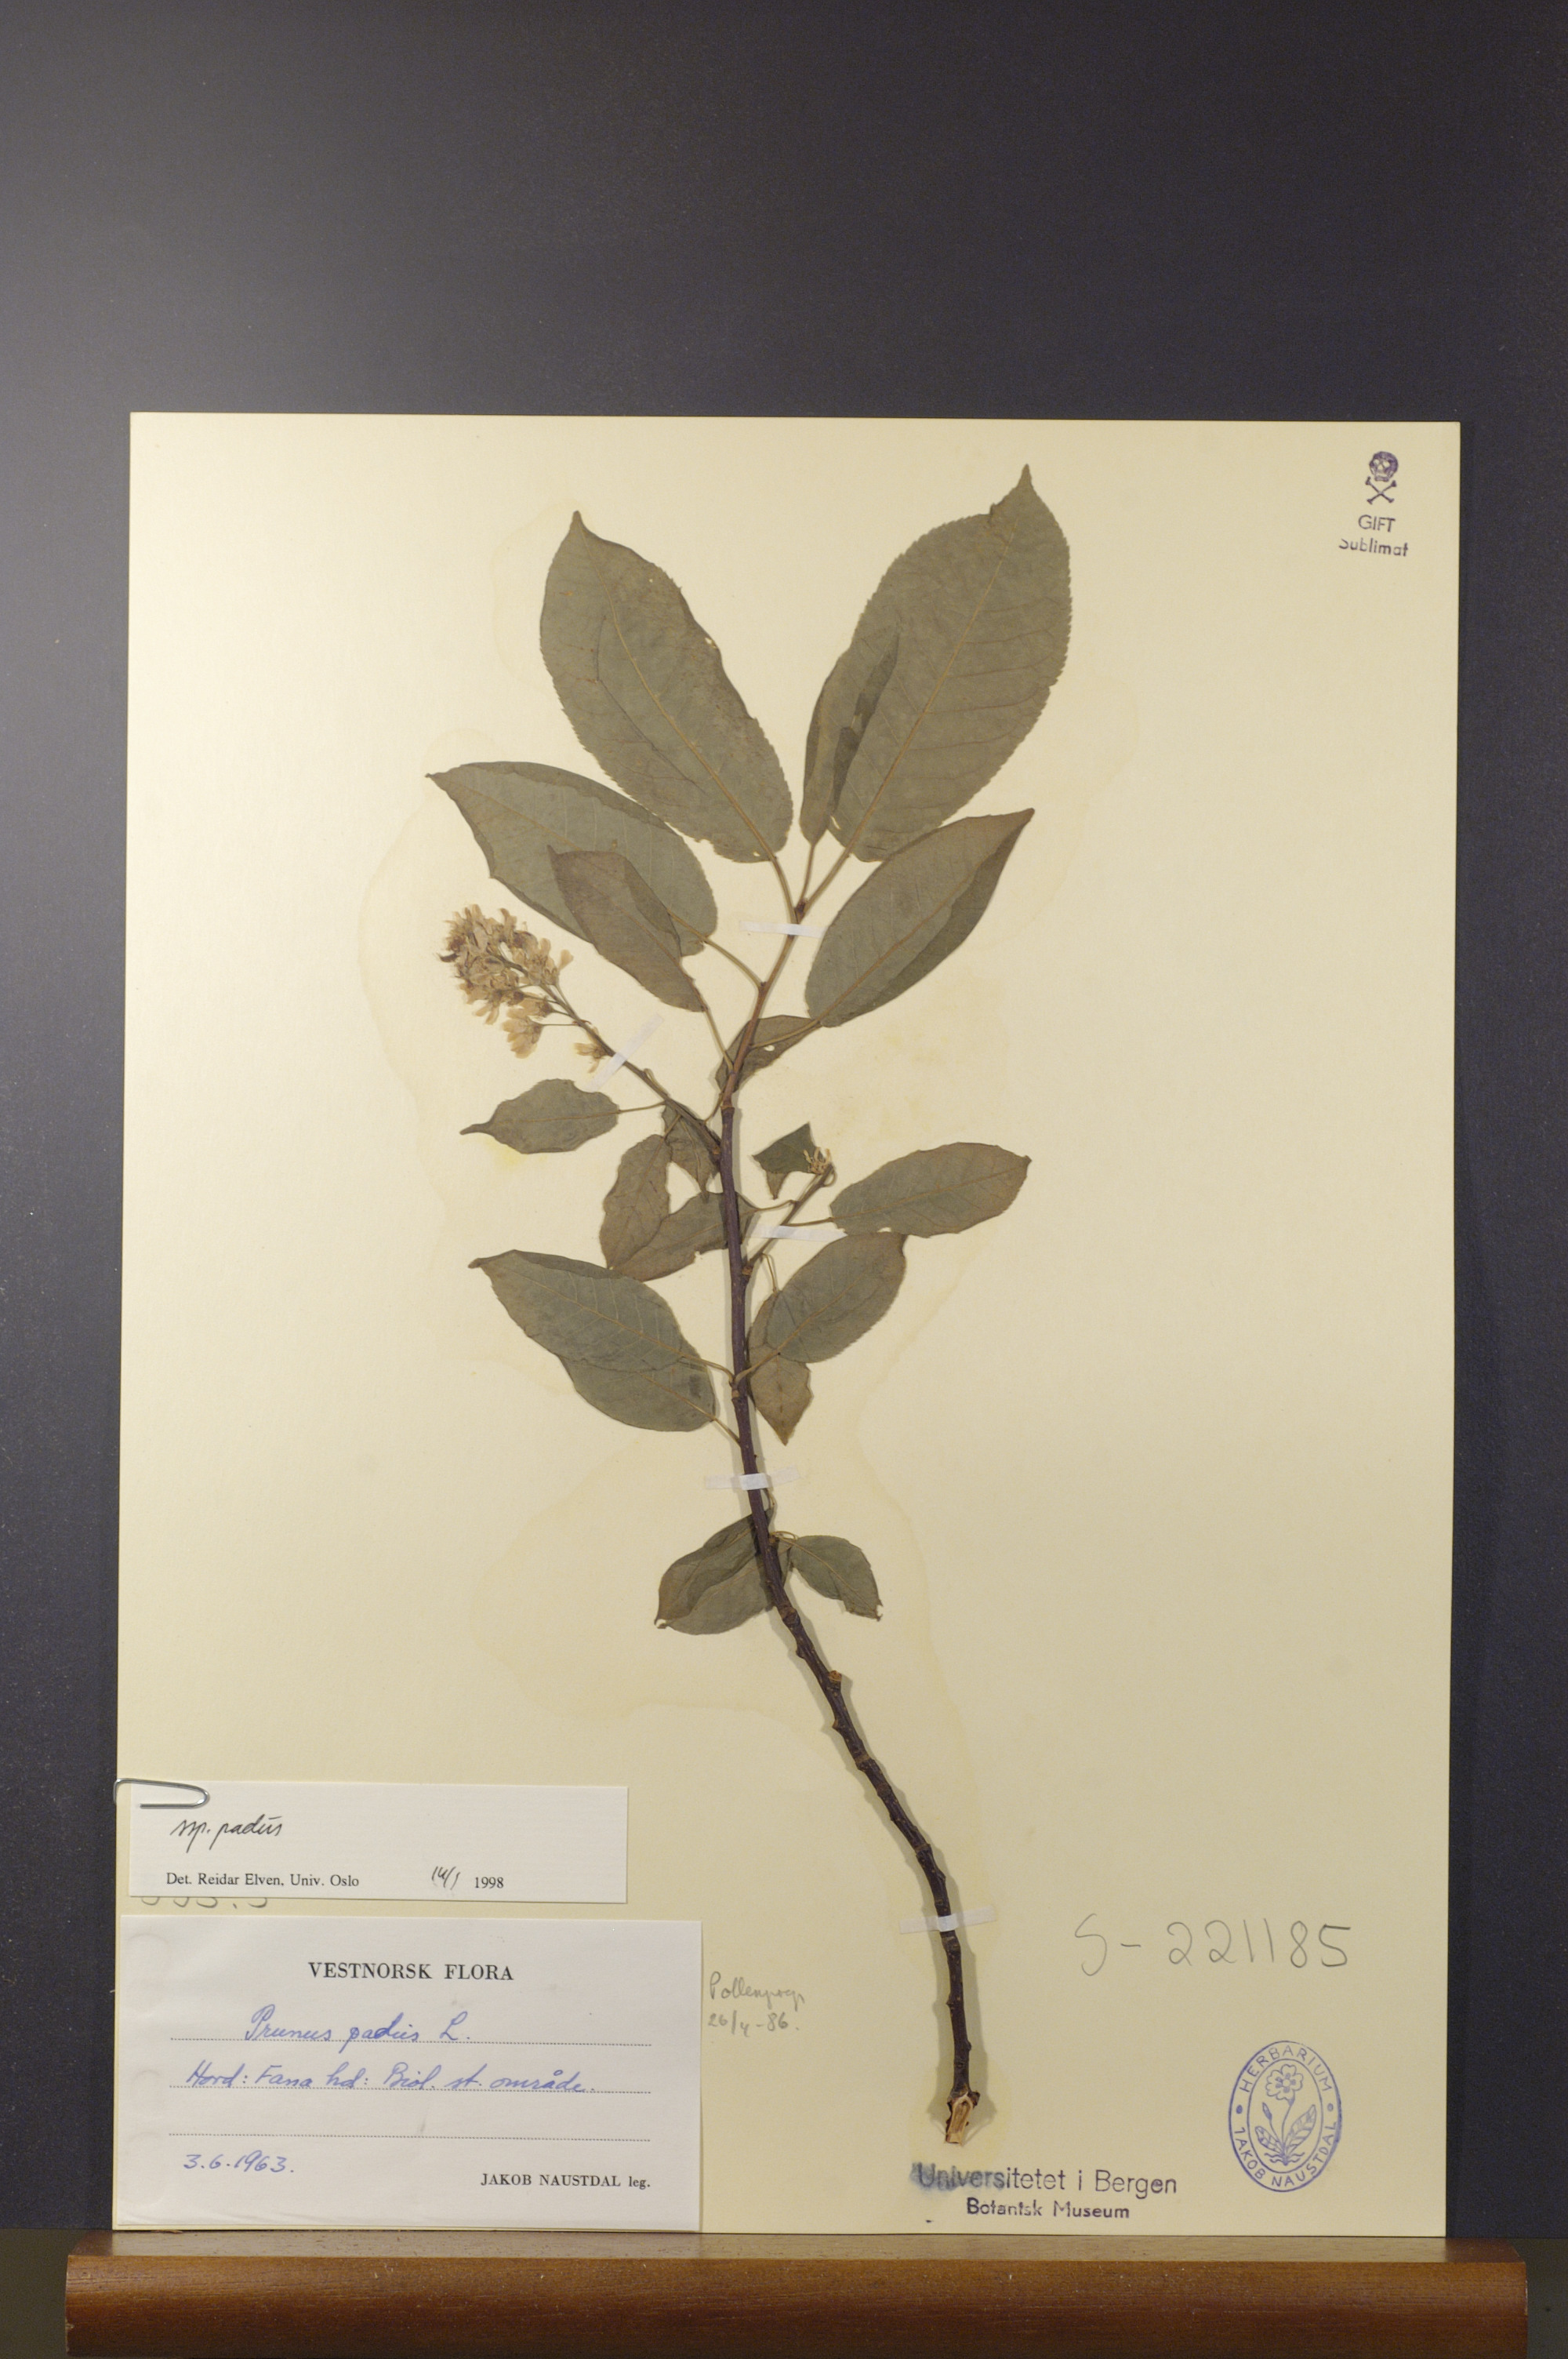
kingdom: Plantae
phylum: Tracheophyta
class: Magnoliopsida
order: Rosales
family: Rosaceae
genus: Prunus
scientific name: Prunus padus
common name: Bird cherry
